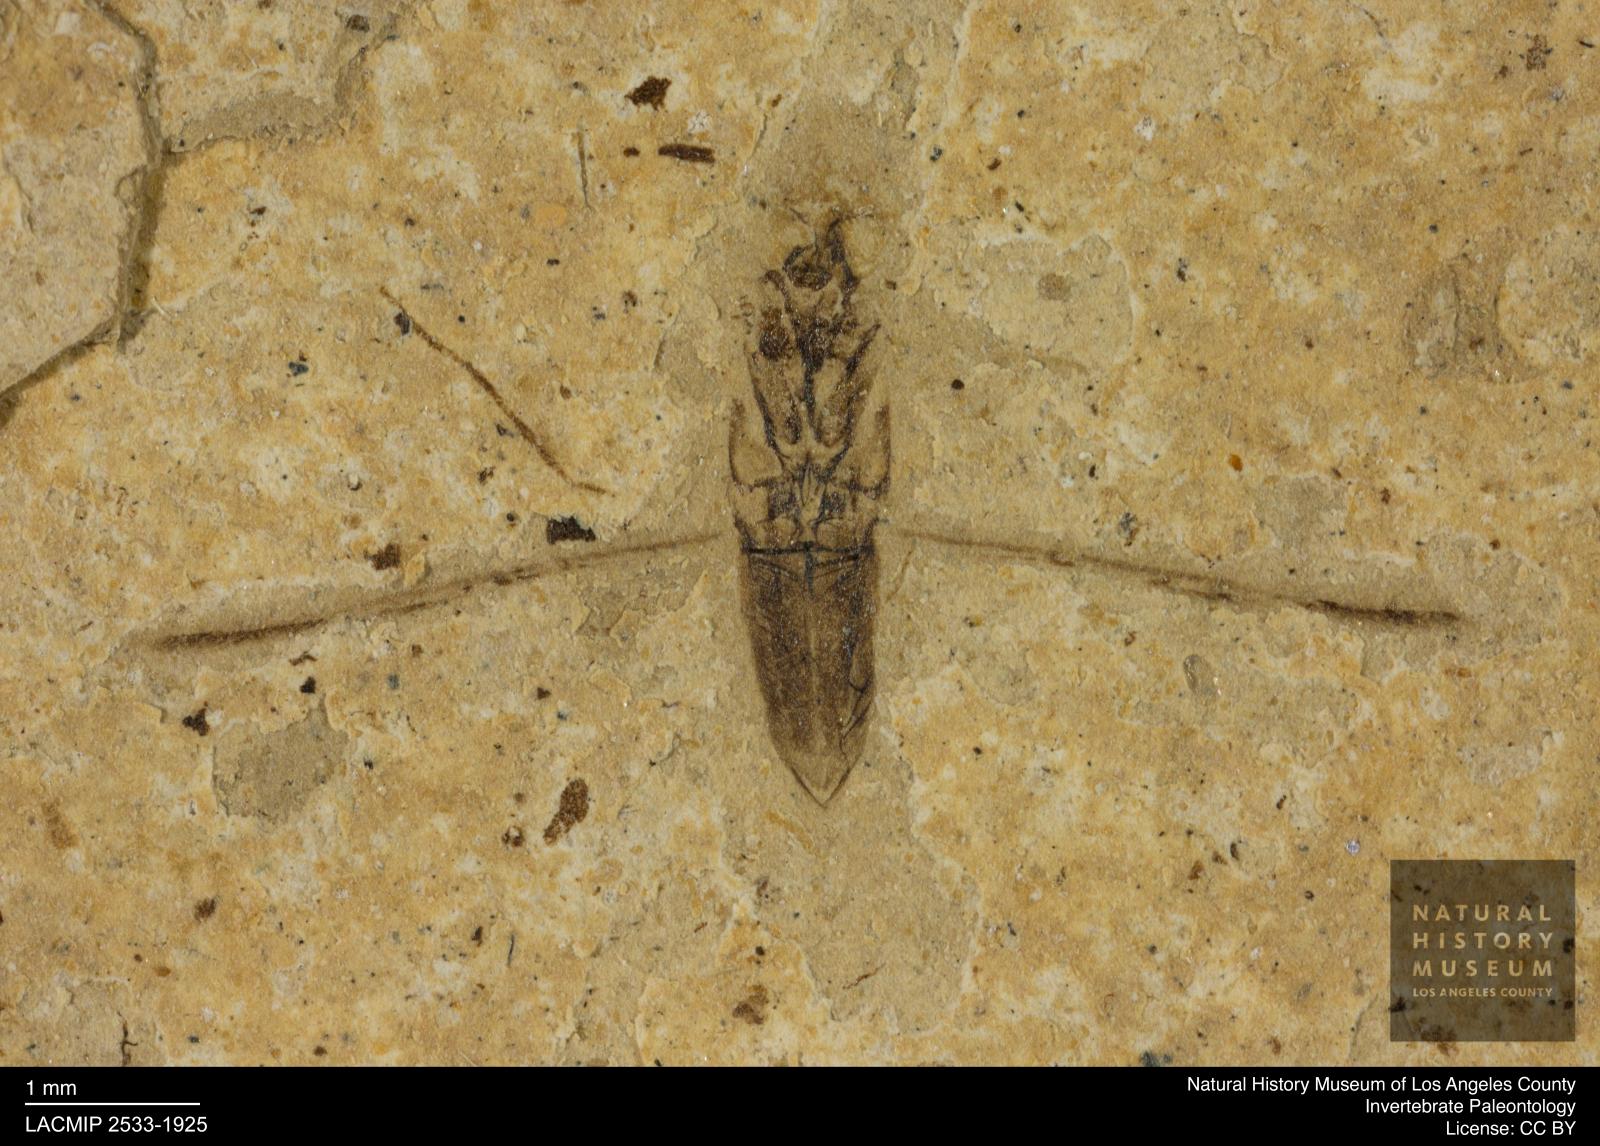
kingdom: Animalia
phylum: Arthropoda
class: Insecta
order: Hemiptera
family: Notonectidae
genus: Notonecta
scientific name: Notonecta
